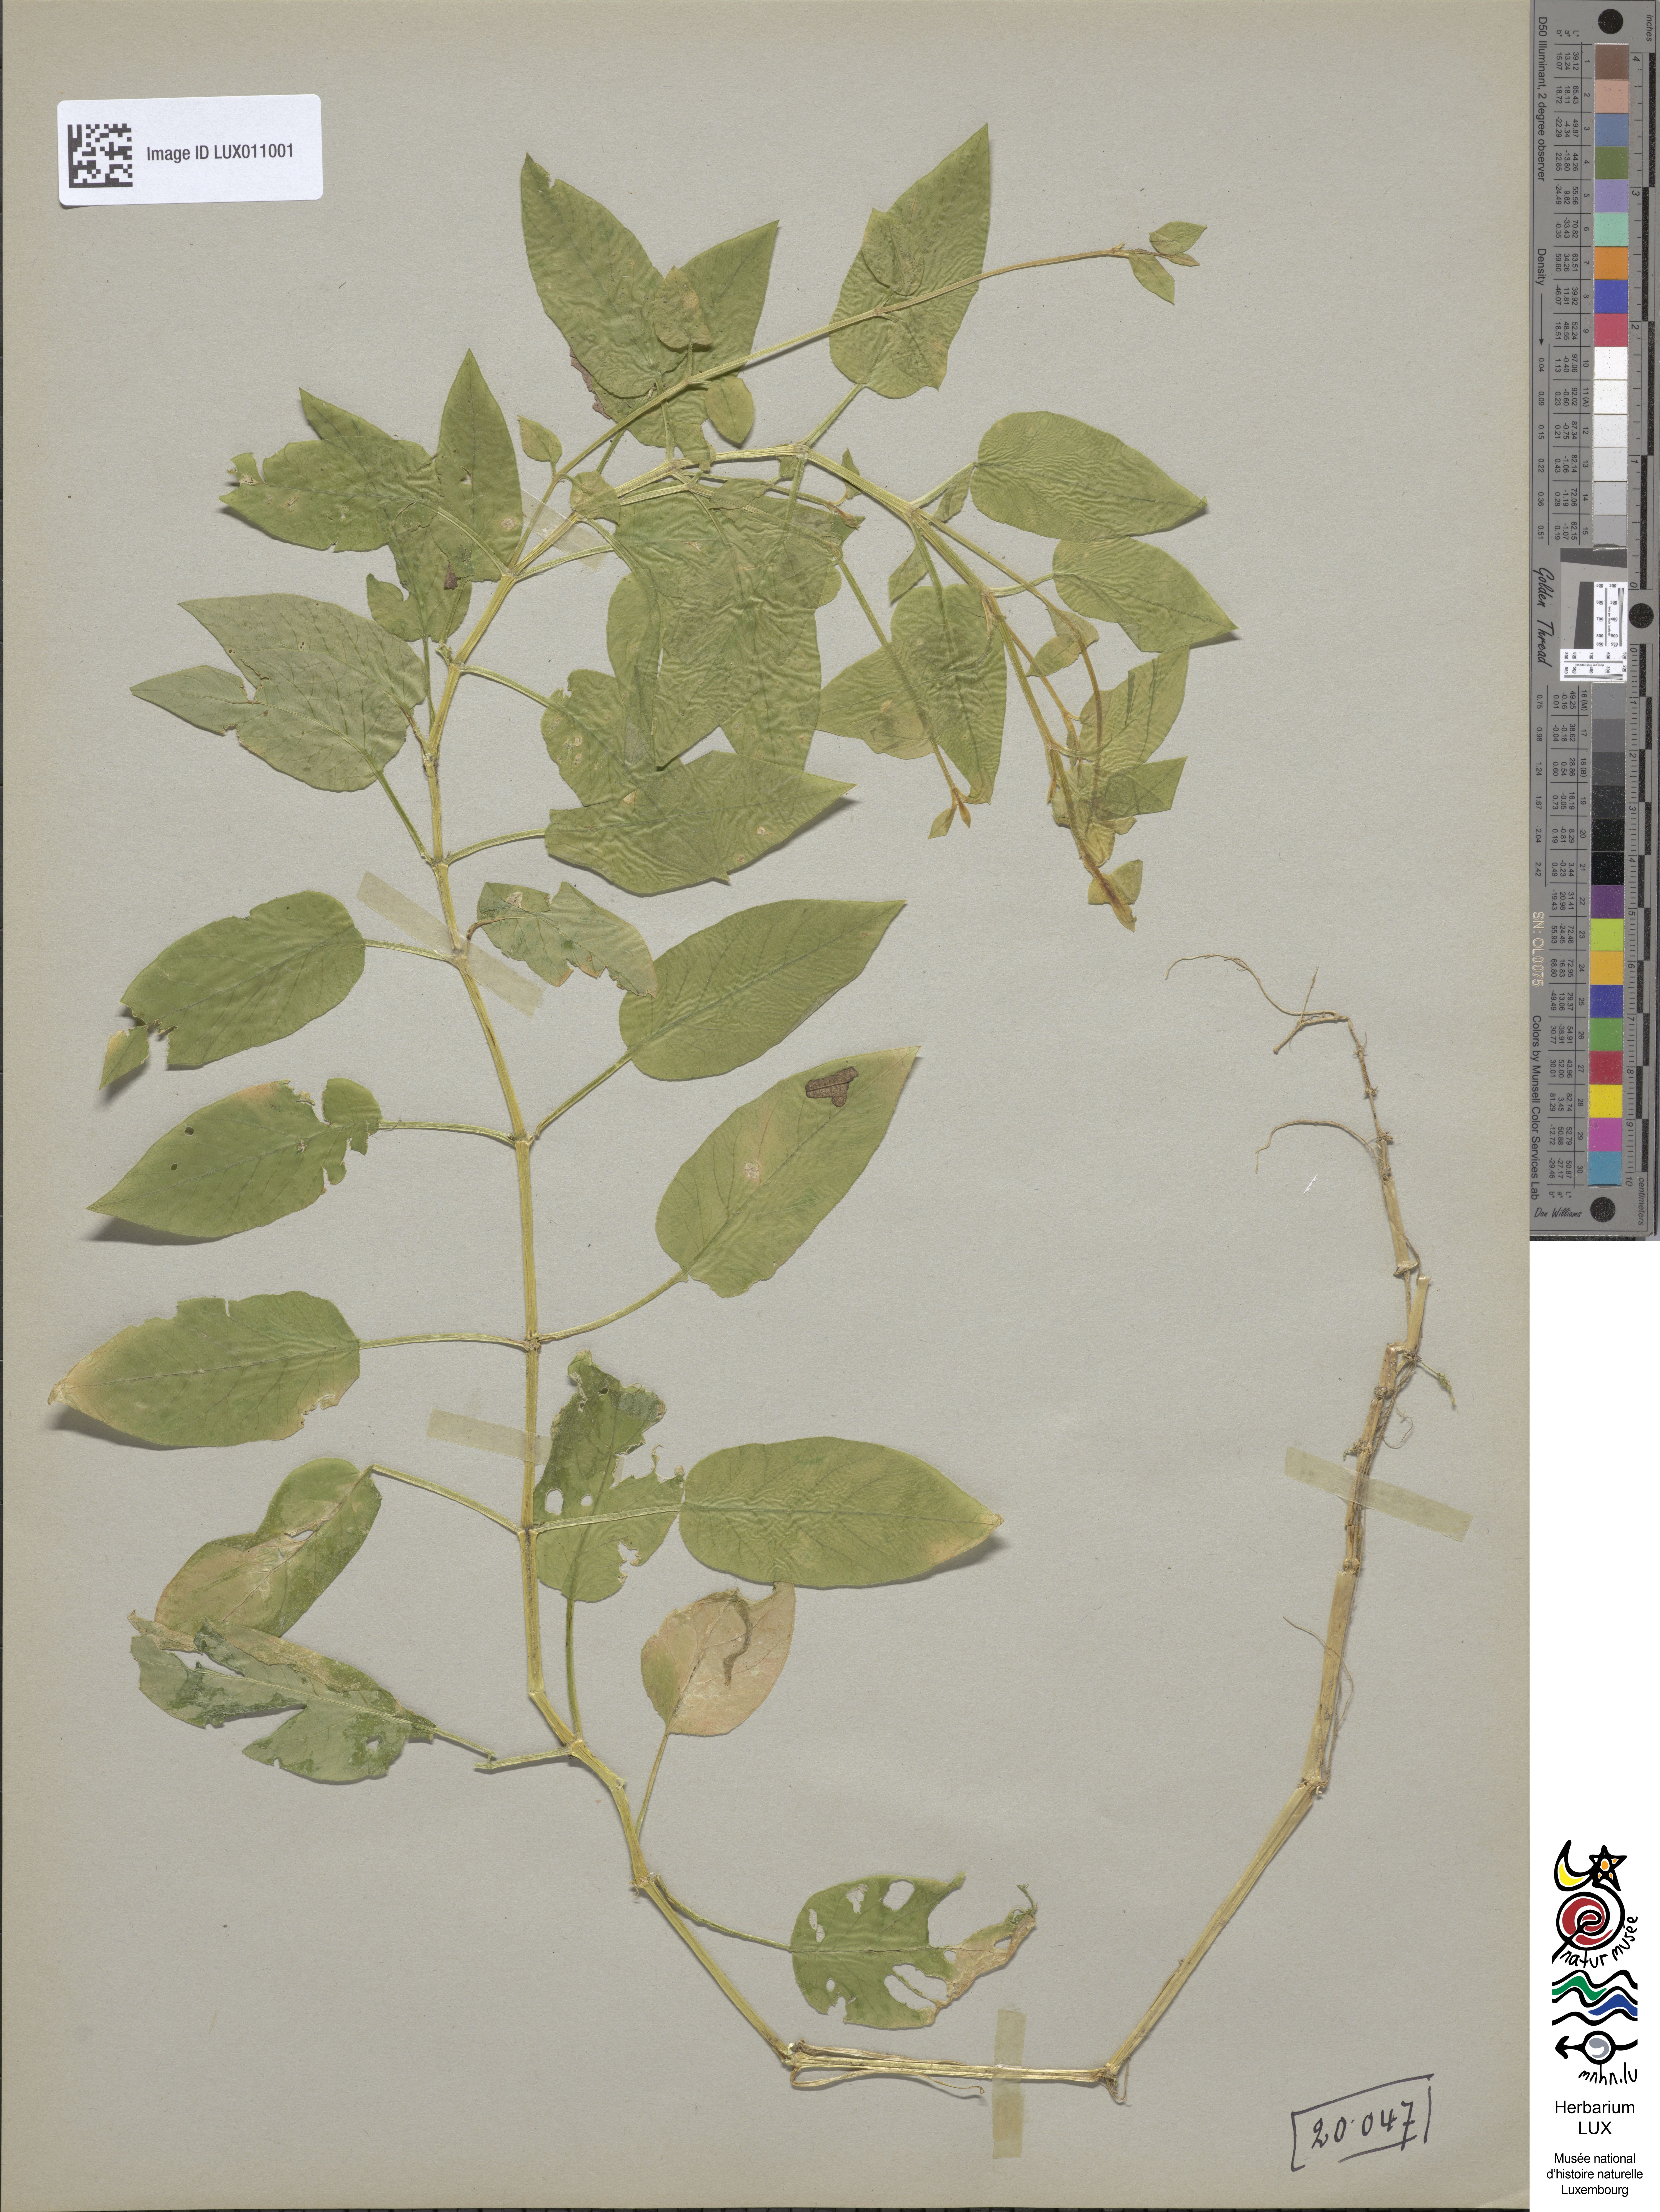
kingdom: Plantae
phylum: Tracheophyta
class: Magnoliopsida
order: Caryophyllales
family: Caryophyllaceae
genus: Stellaria
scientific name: Stellaria nemorum
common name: Wood stitchwort
